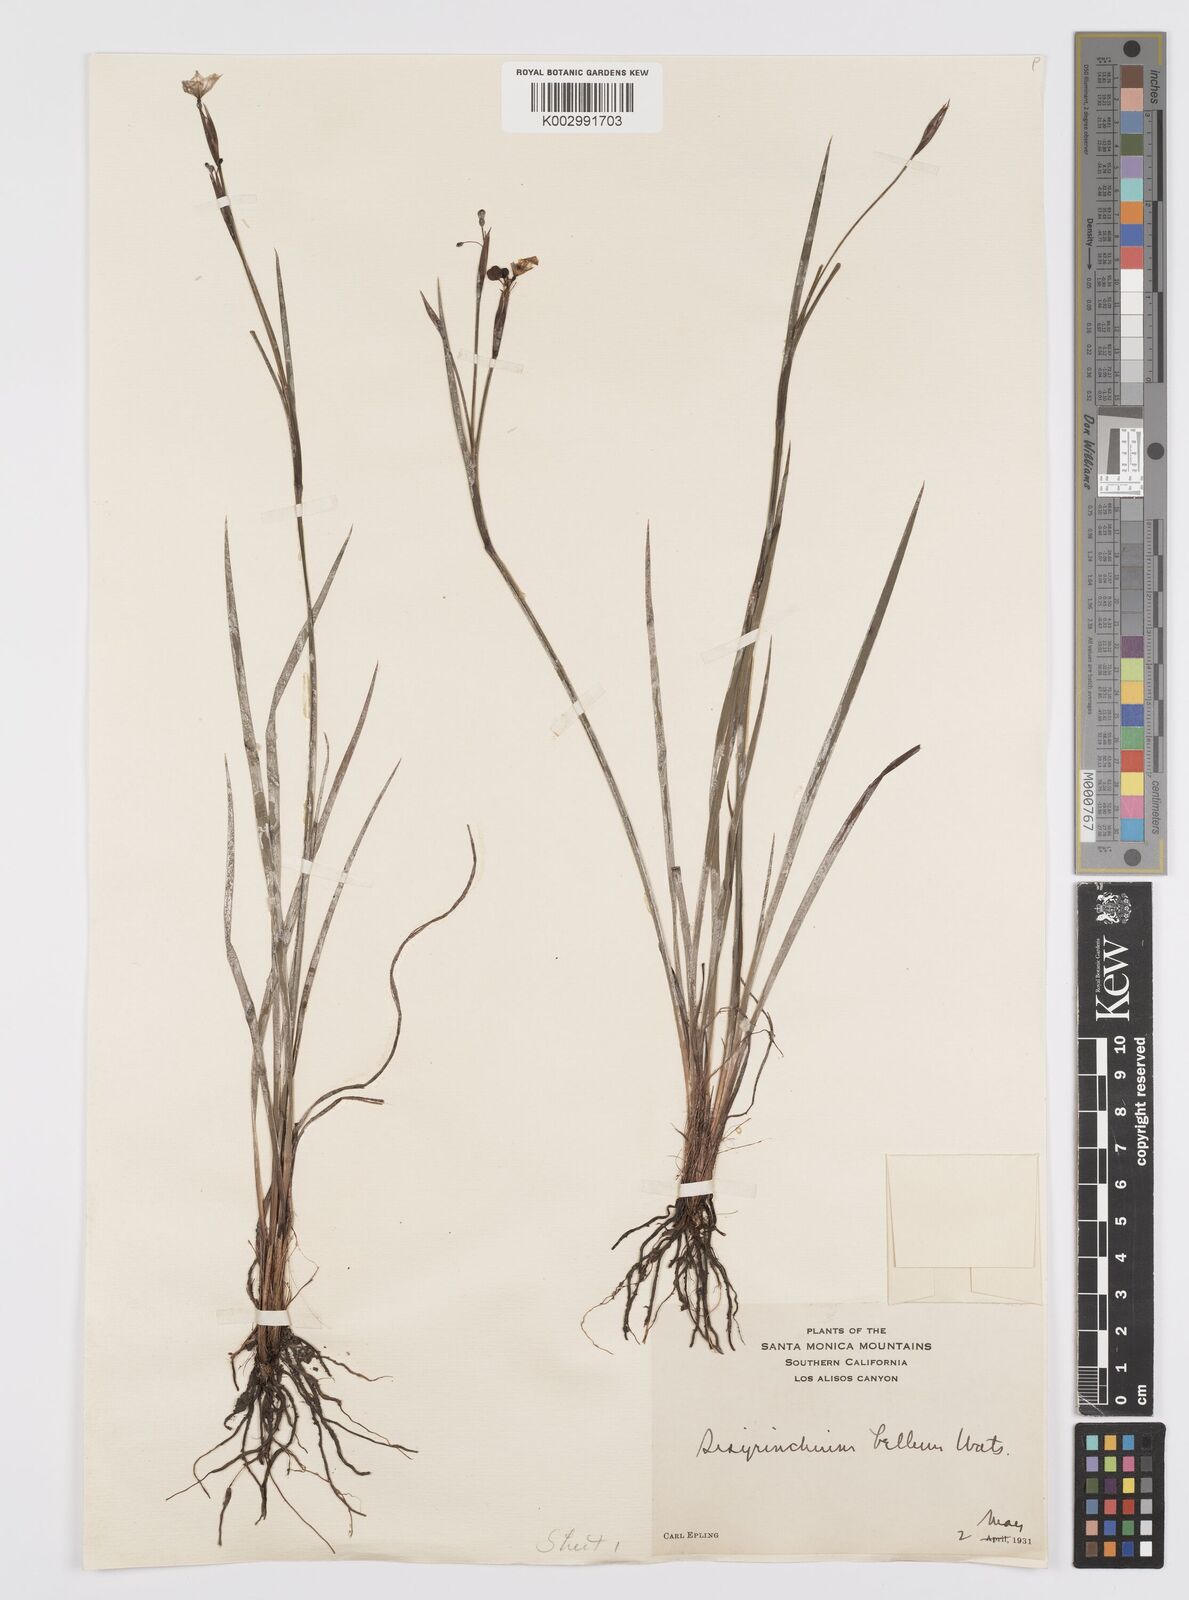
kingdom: Plantae
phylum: Tracheophyta
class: Liliopsida
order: Asparagales
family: Iridaceae
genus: Sisyrinchium
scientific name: Sisyrinchium bellum
